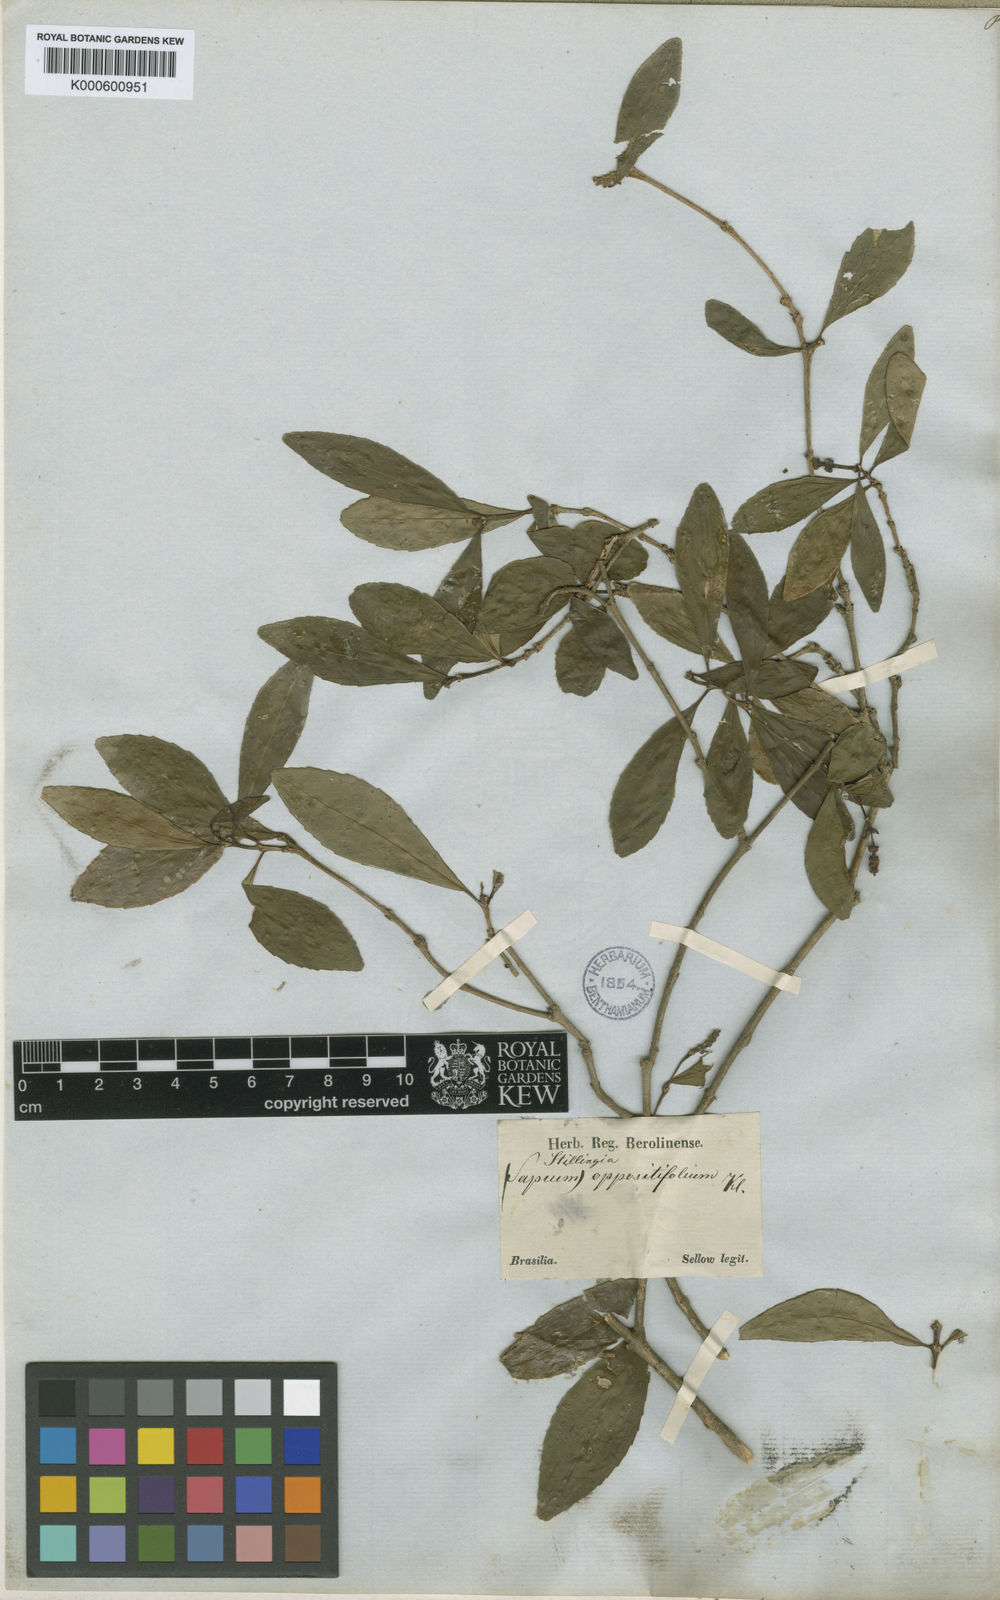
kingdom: Plantae
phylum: Tracheophyta
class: Magnoliopsida
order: Malpighiales
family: Euphorbiaceae
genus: Stillingia
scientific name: Stillingia
